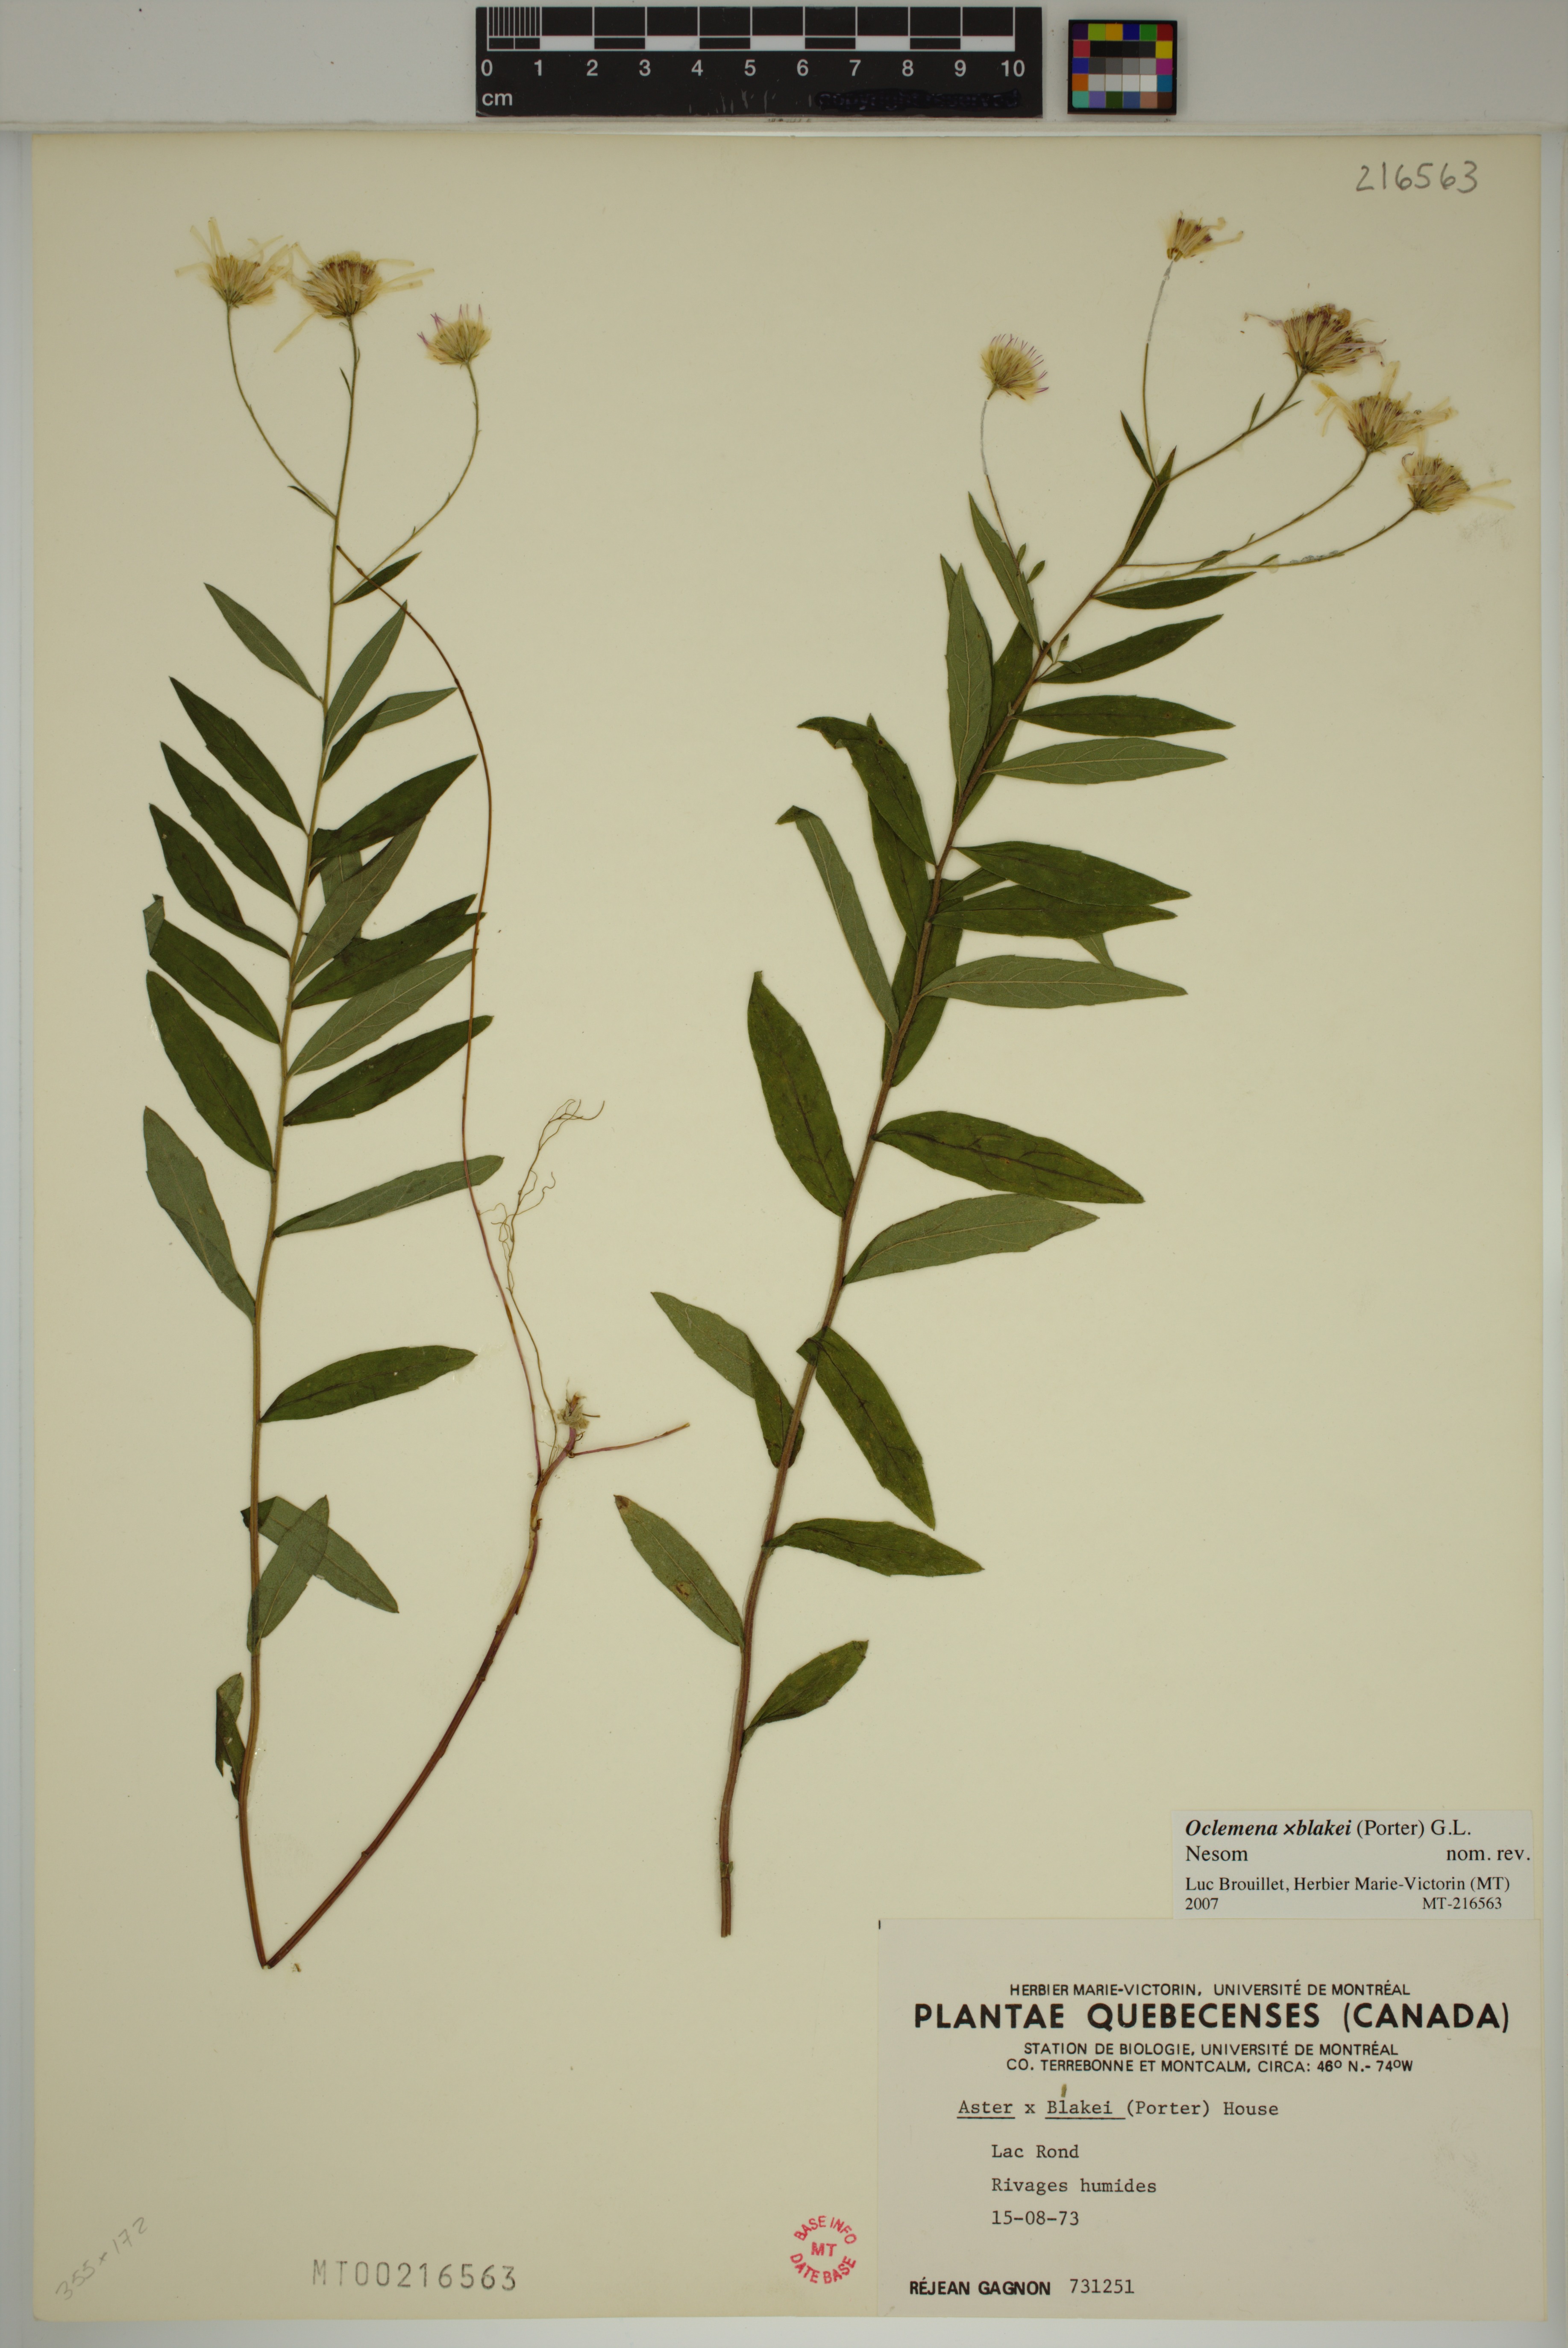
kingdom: Plantae
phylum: Tracheophyta
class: Magnoliopsida
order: Asterales
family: Asteraceae
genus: Oclemena
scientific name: Oclemena blakei
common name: Blake's aster
